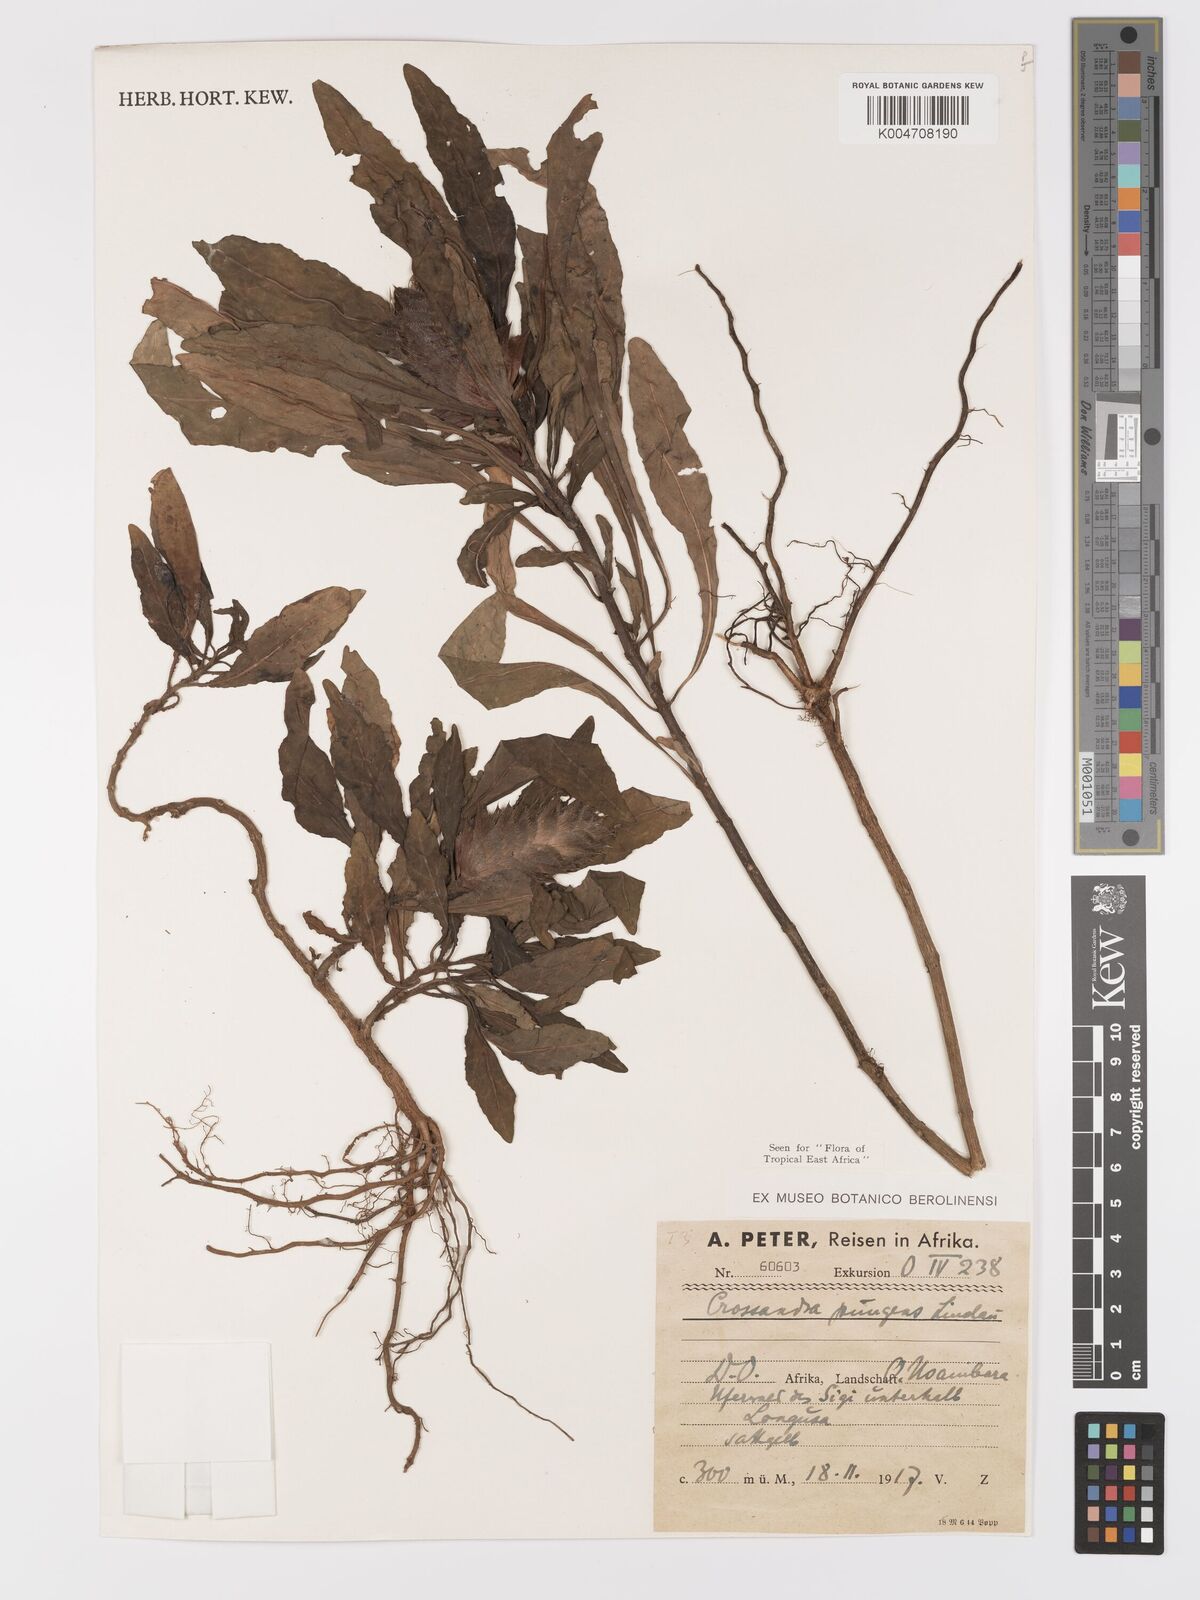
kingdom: Plantae
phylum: Tracheophyta
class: Magnoliopsida
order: Lamiales
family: Acanthaceae
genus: Crossandra
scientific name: Crossandra pungens
